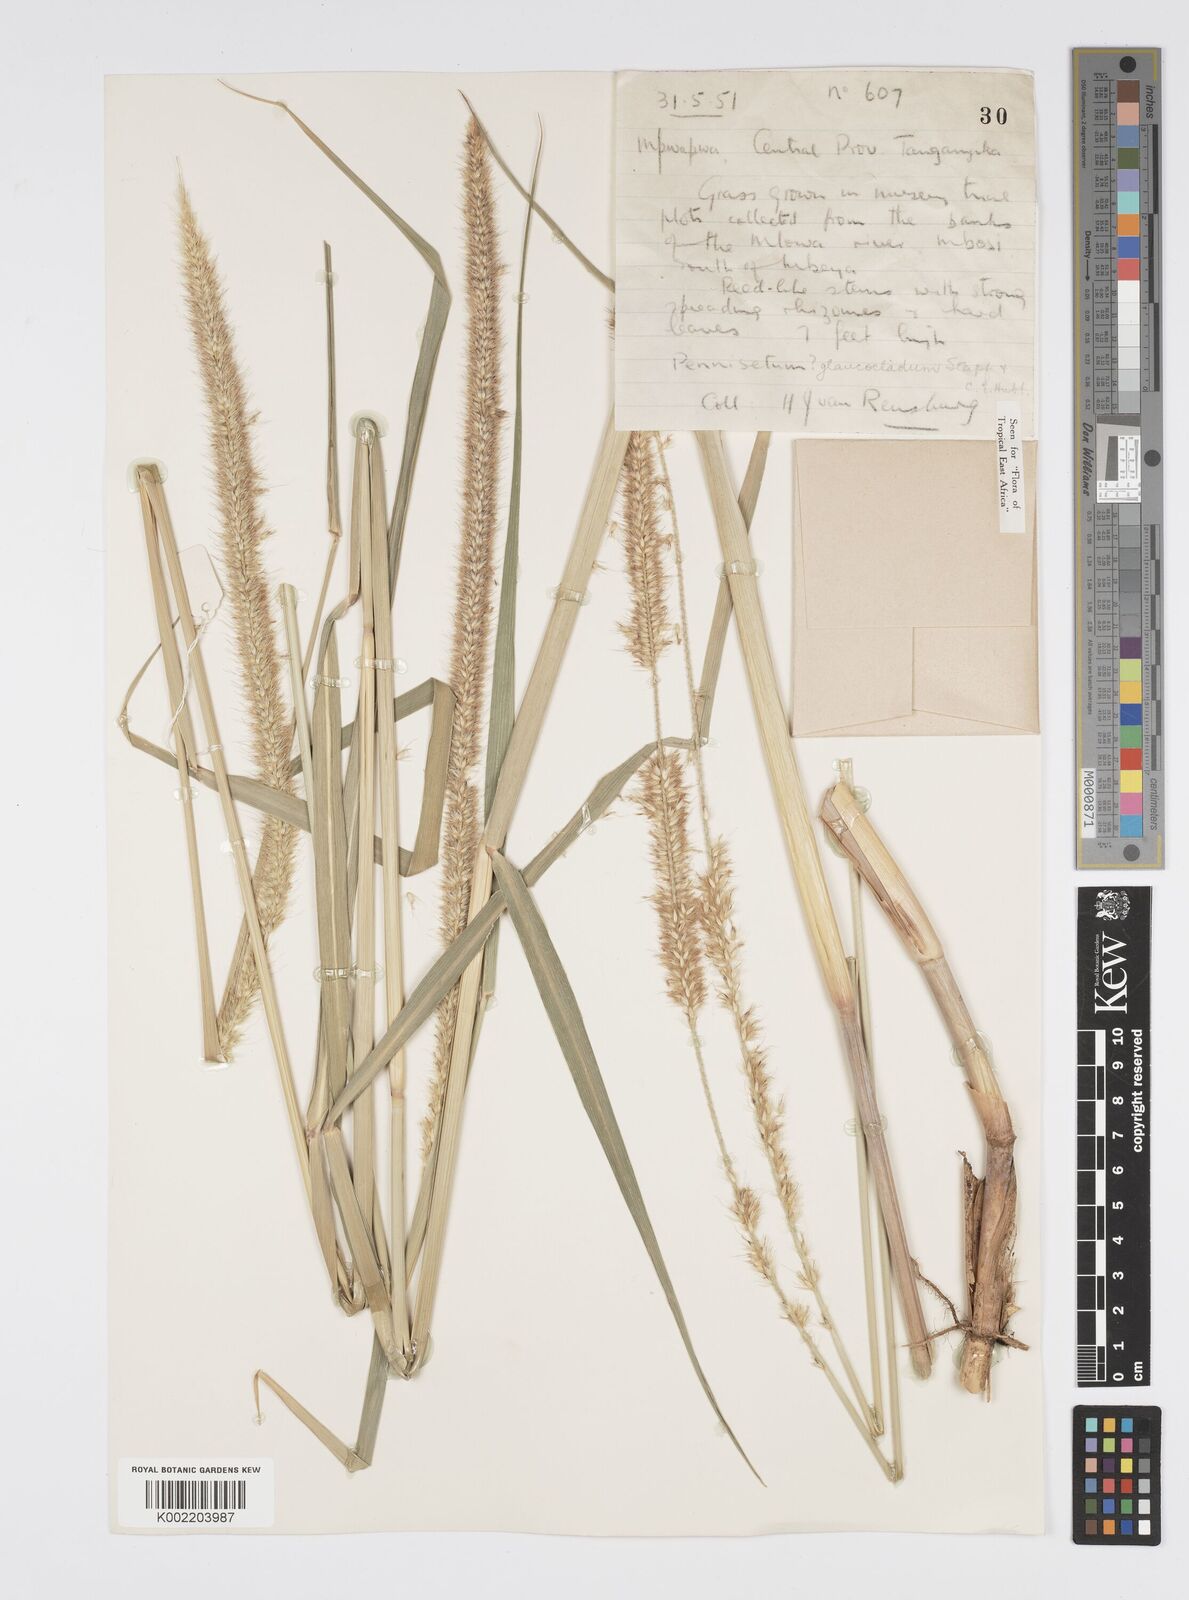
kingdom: Plantae
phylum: Tracheophyta
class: Liliopsida
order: Poales
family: Poaceae
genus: Cenchrus
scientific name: Cenchrus caudatus
